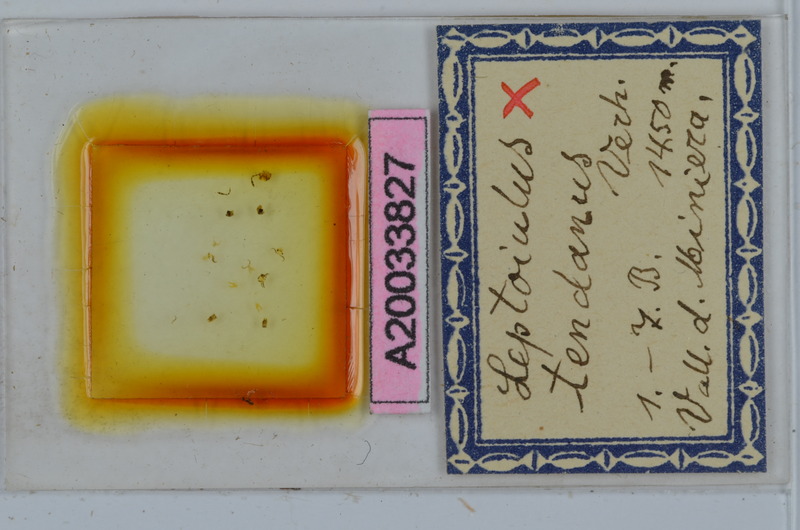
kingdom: Animalia
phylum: Arthropoda
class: Diplopoda
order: Julida
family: Julidae
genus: Leptoiulus
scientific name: Leptoiulus tendanus
